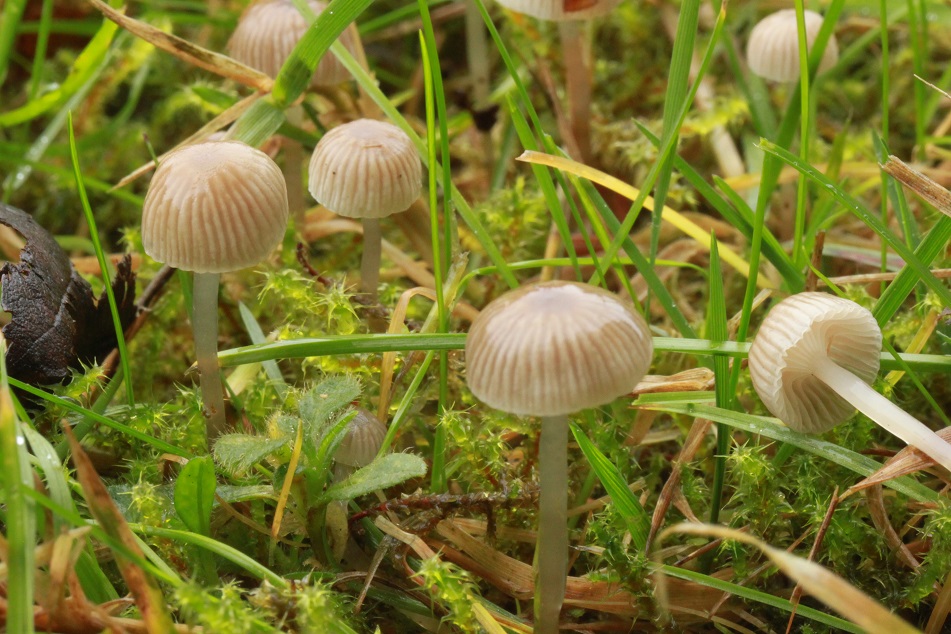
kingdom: Fungi
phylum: Basidiomycota
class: Agaricomycetes
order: Agaricales
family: Mycenaceae
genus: Mycena
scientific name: Mycena vulgaris
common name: klæbrig huesvamp
